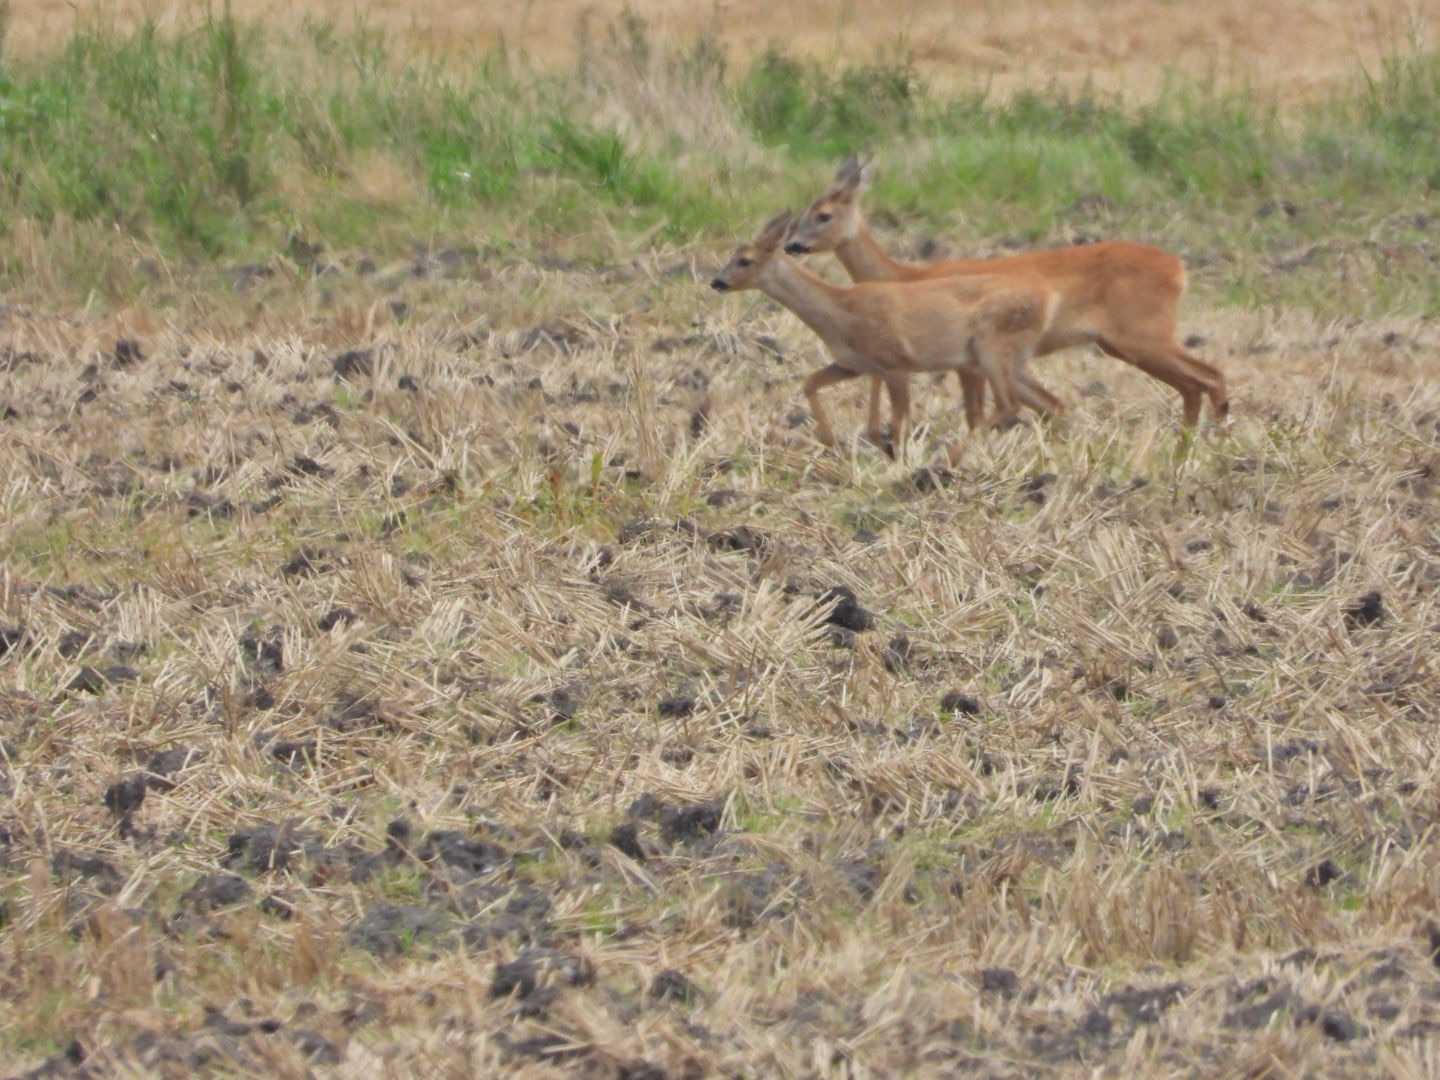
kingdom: Animalia
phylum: Chordata
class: Mammalia
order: Artiodactyla
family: Cervidae
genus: Capreolus
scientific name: Capreolus capreolus
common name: Rådyr
